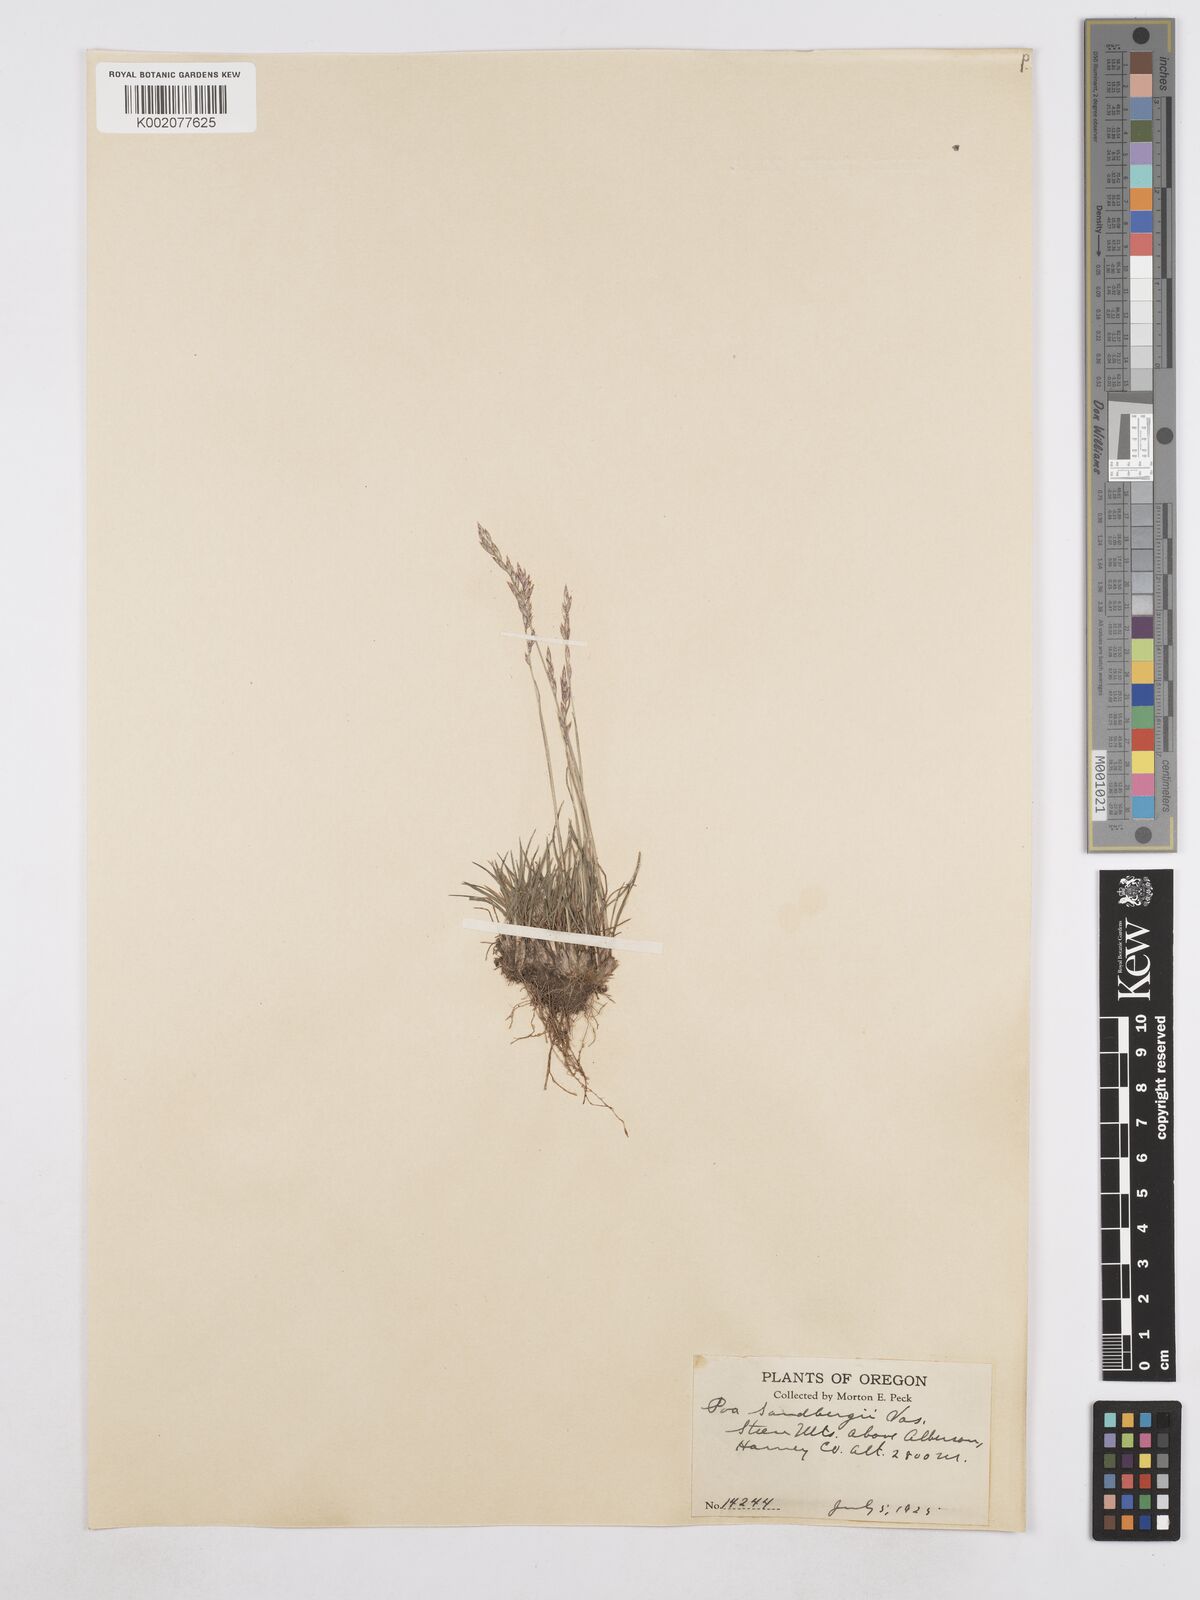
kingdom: Plantae
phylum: Tracheophyta
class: Liliopsida
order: Poales
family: Poaceae
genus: Poa
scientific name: Poa secunda
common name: Sandberg bluegrass
